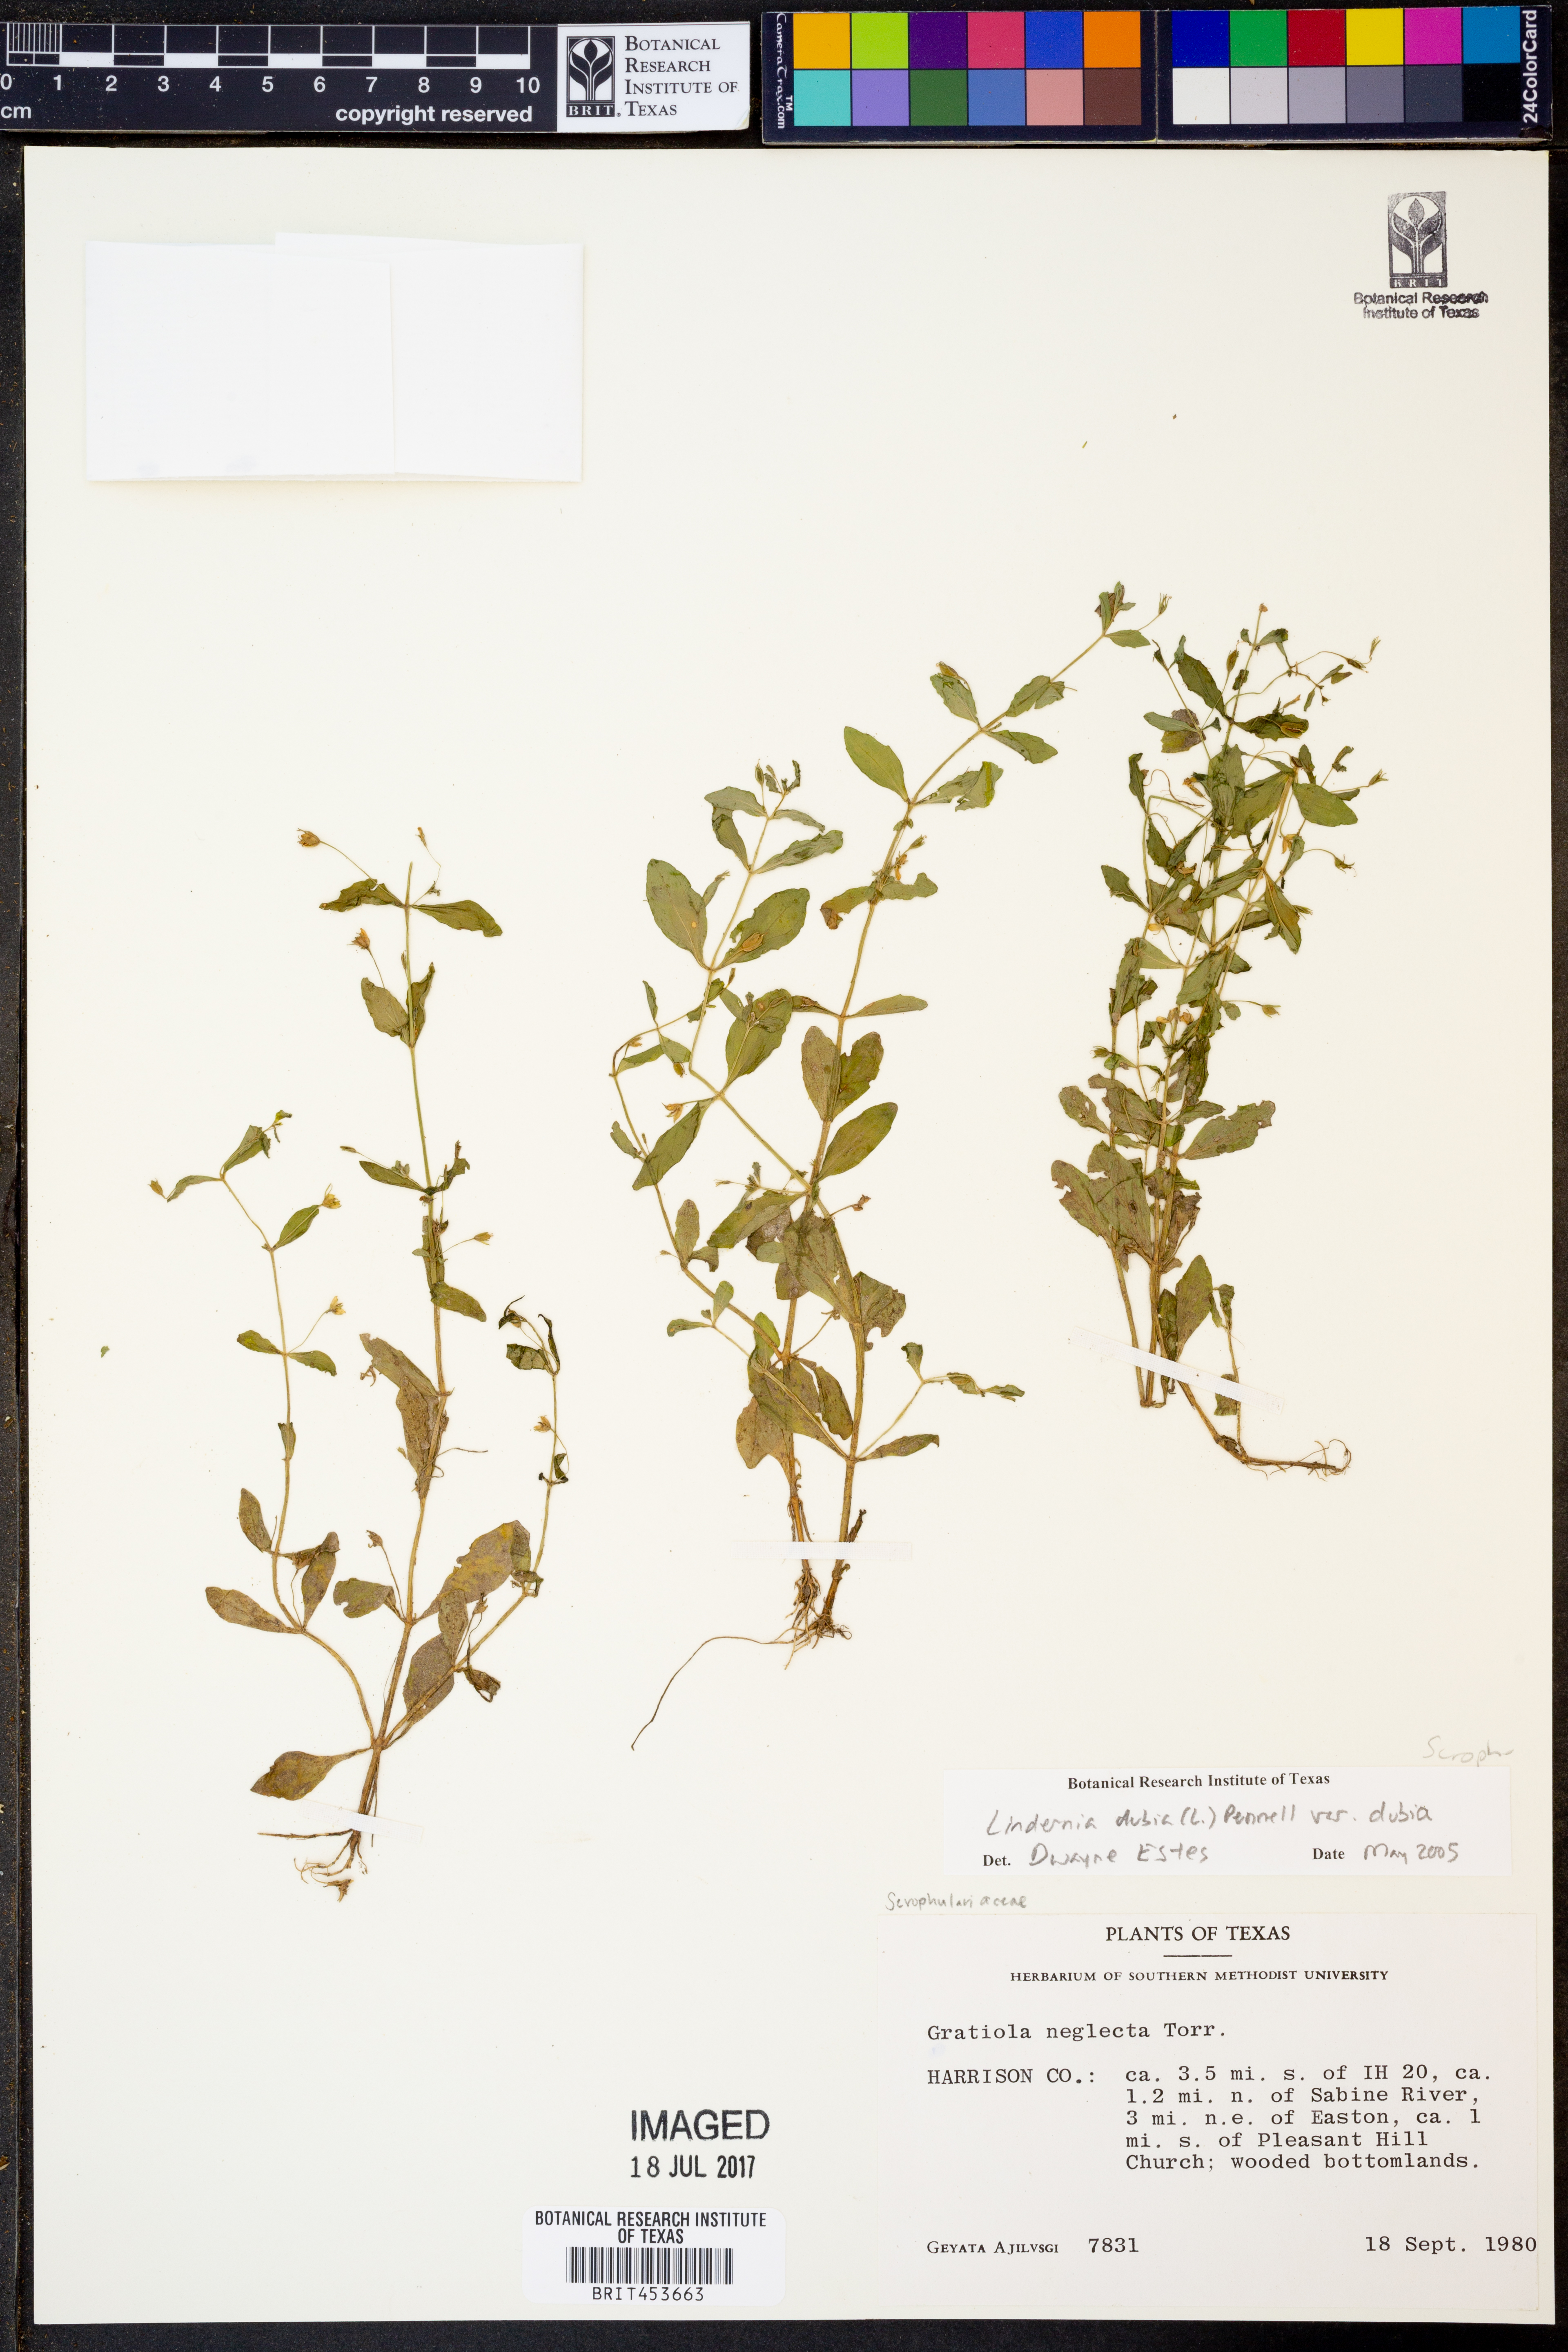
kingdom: Plantae
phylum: Tracheophyta
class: Magnoliopsida
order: Lamiales
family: Linderniaceae
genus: Lindernia
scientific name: Lindernia dubia
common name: Annual false pimpernel
